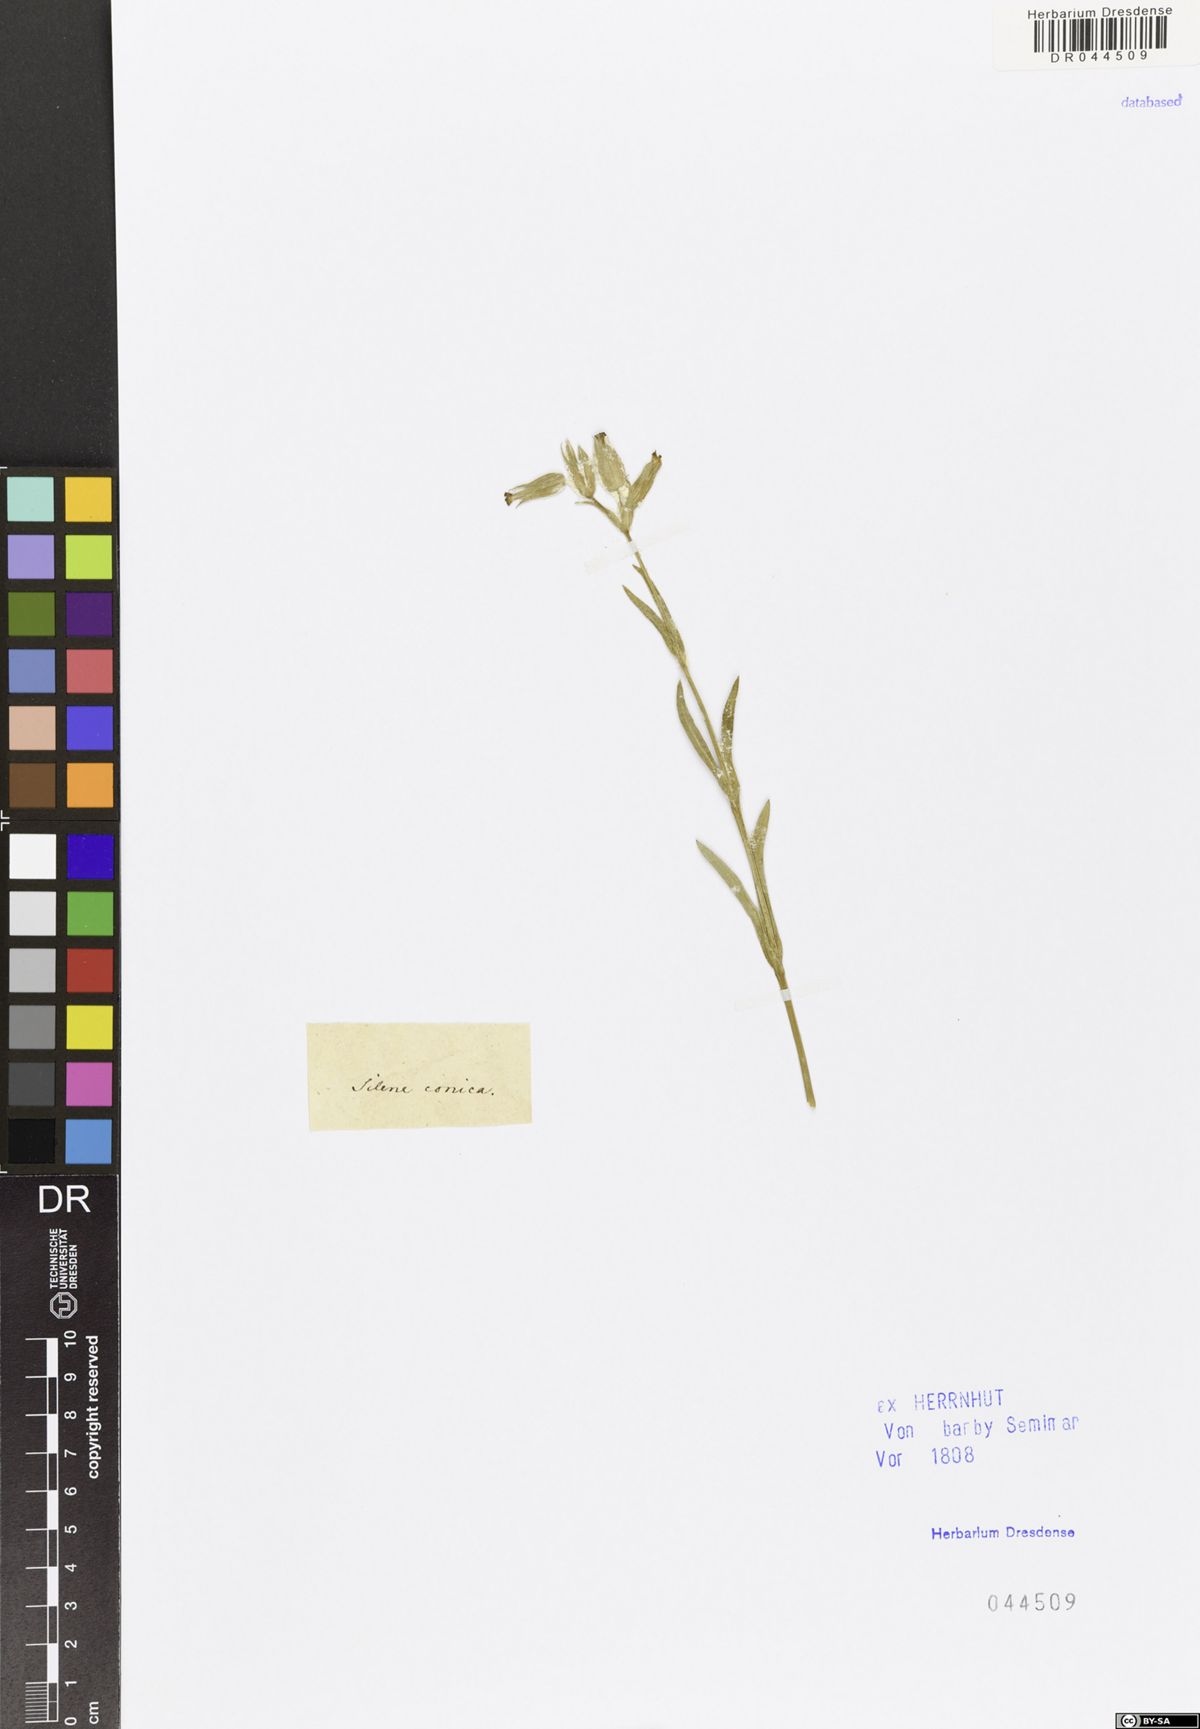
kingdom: Plantae
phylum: Tracheophyta
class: Magnoliopsida
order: Caryophyllales
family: Caryophyllaceae
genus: Silene
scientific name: Silene conica
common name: Sand catchfly
